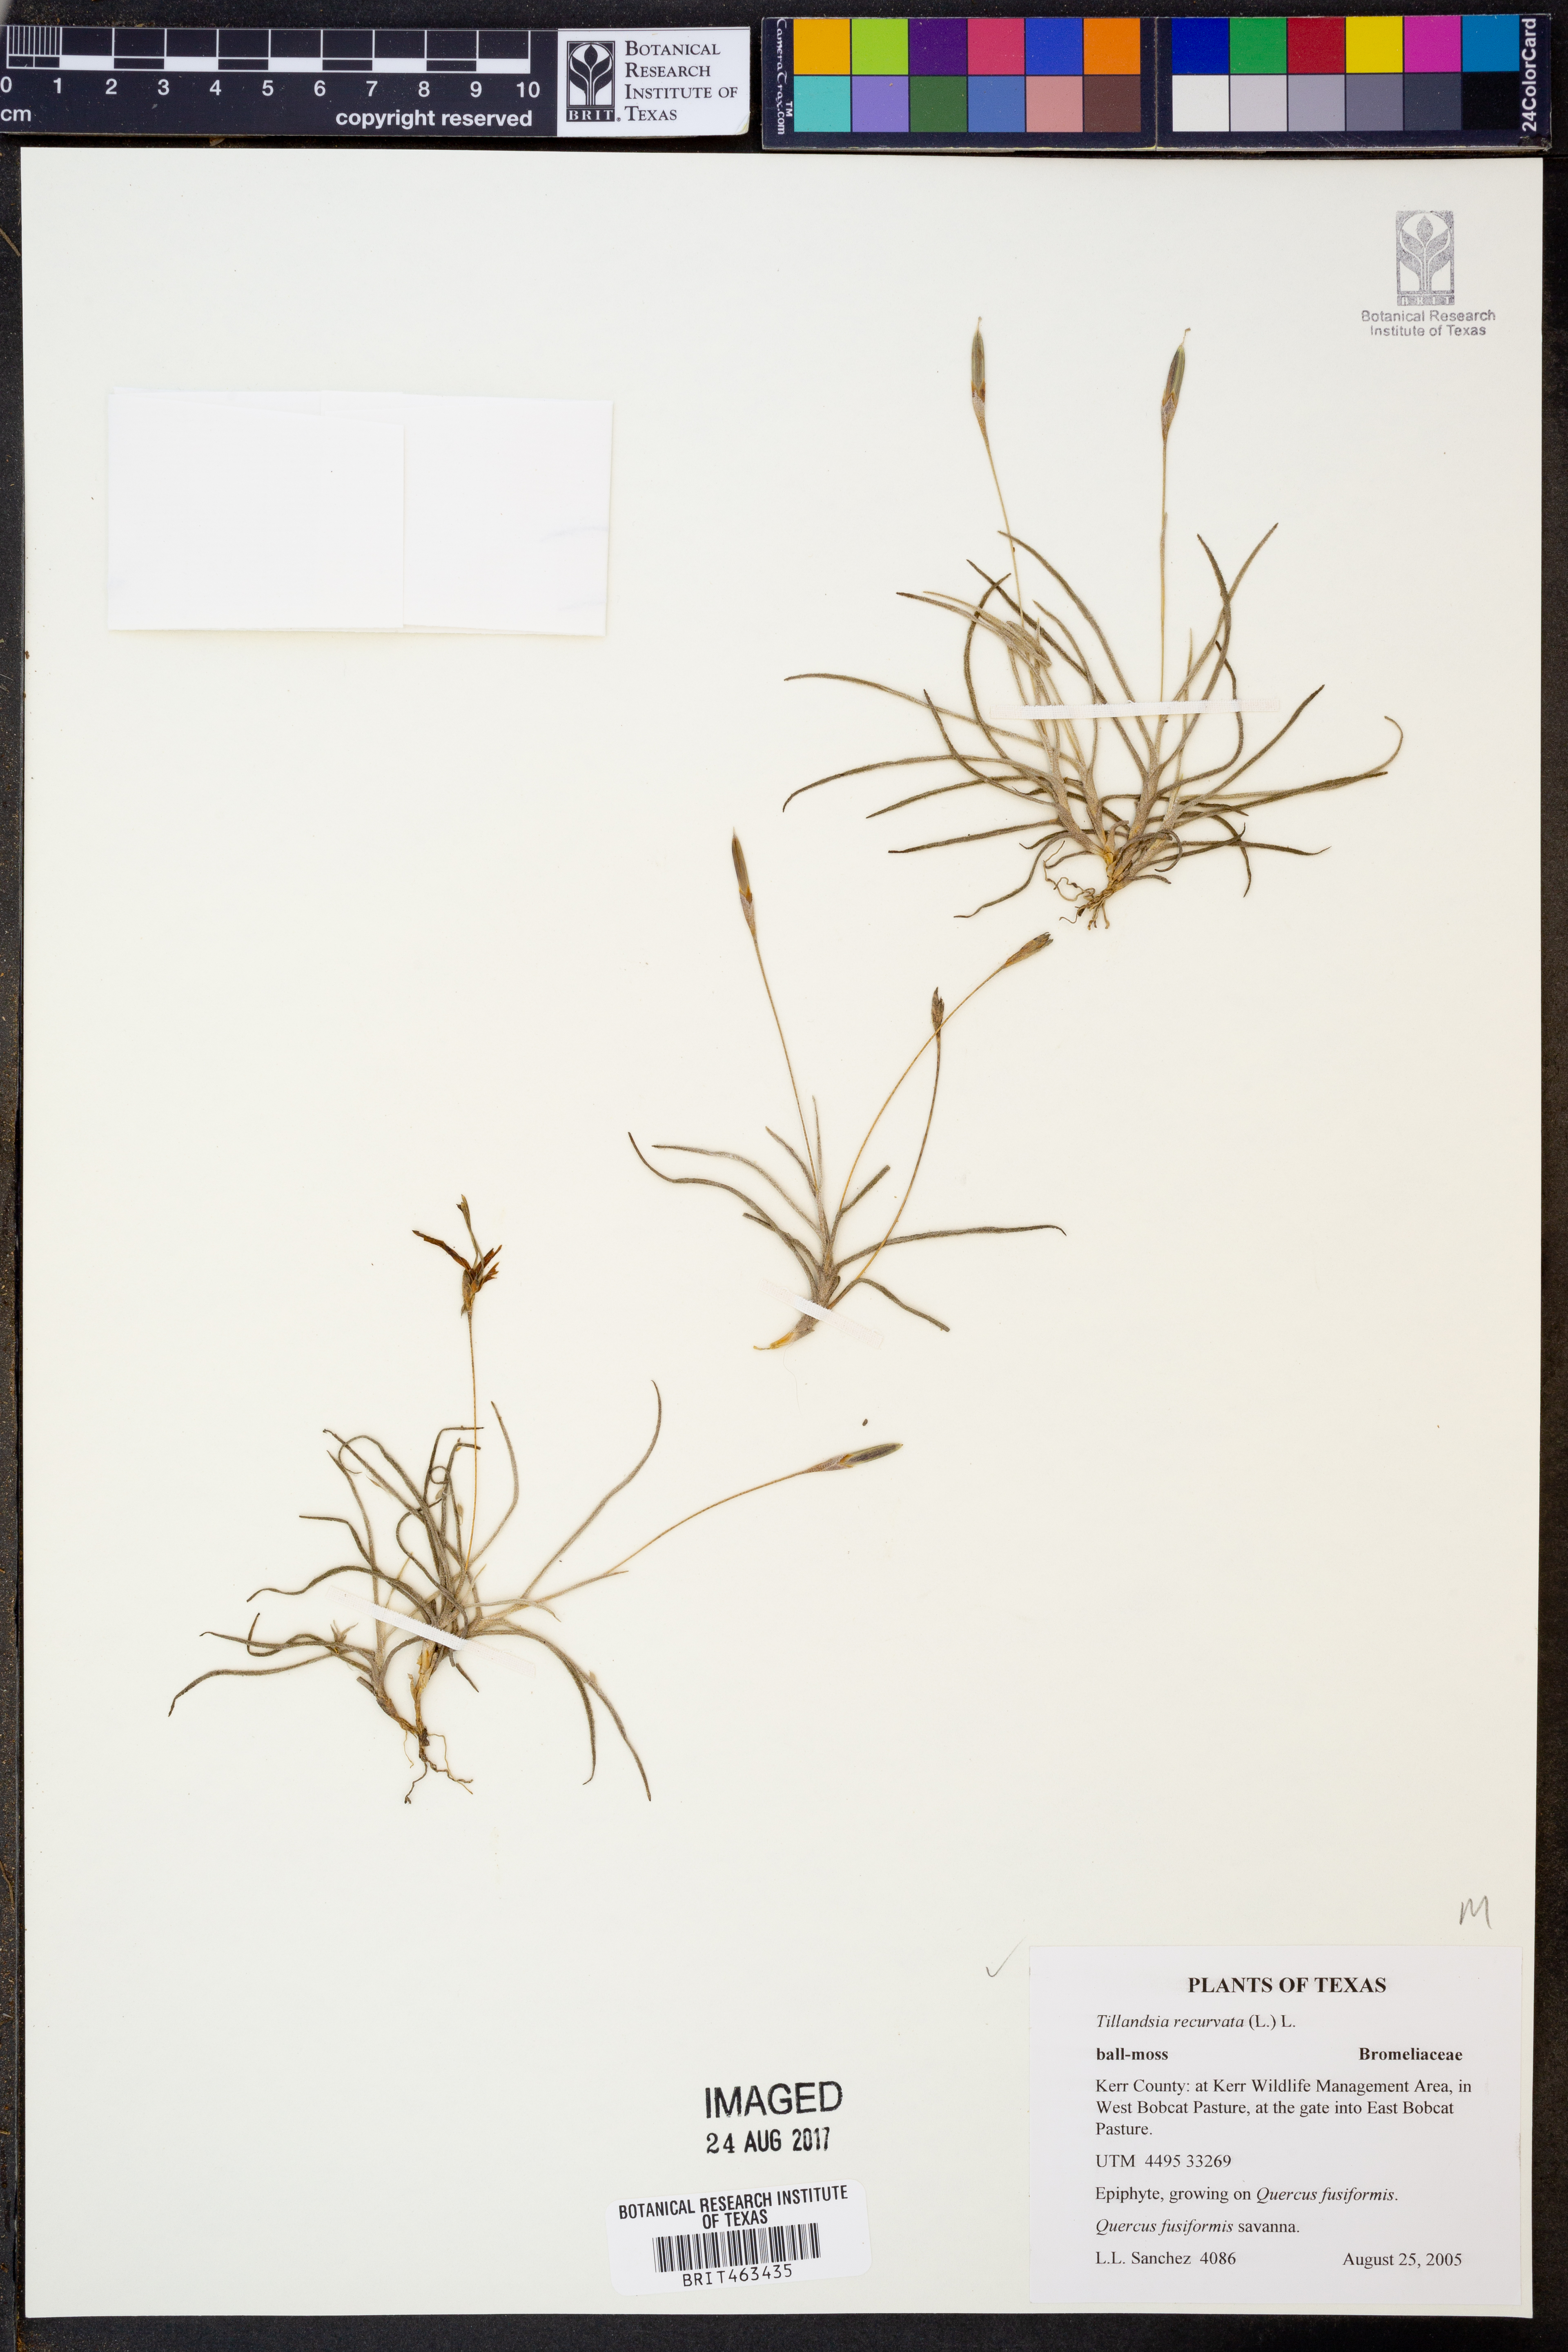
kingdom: Plantae
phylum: Tracheophyta
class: Liliopsida
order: Poales
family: Bromeliaceae
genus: Tillandsia
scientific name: Tillandsia recurvata
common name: Small ballmoss
